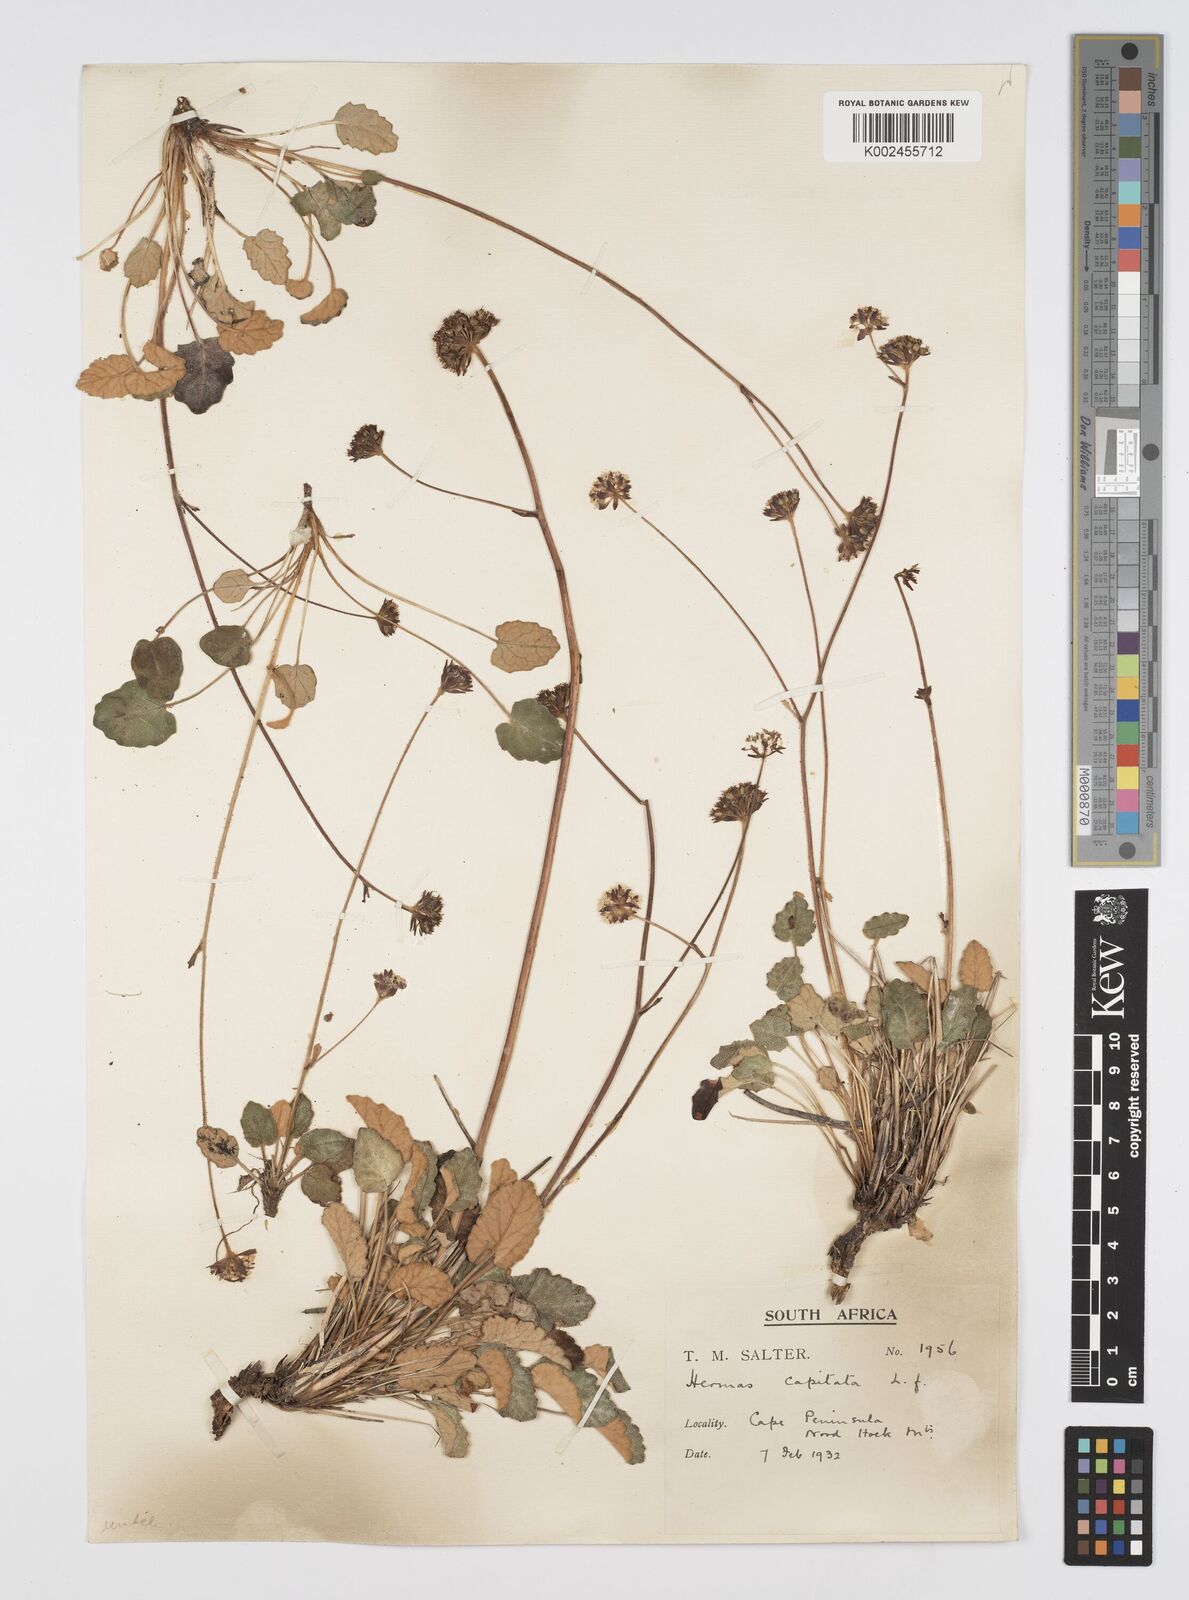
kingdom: Plantae
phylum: Tracheophyta
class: Magnoliopsida
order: Apiales
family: Apiaceae
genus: Hermas
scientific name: Hermas capitata
